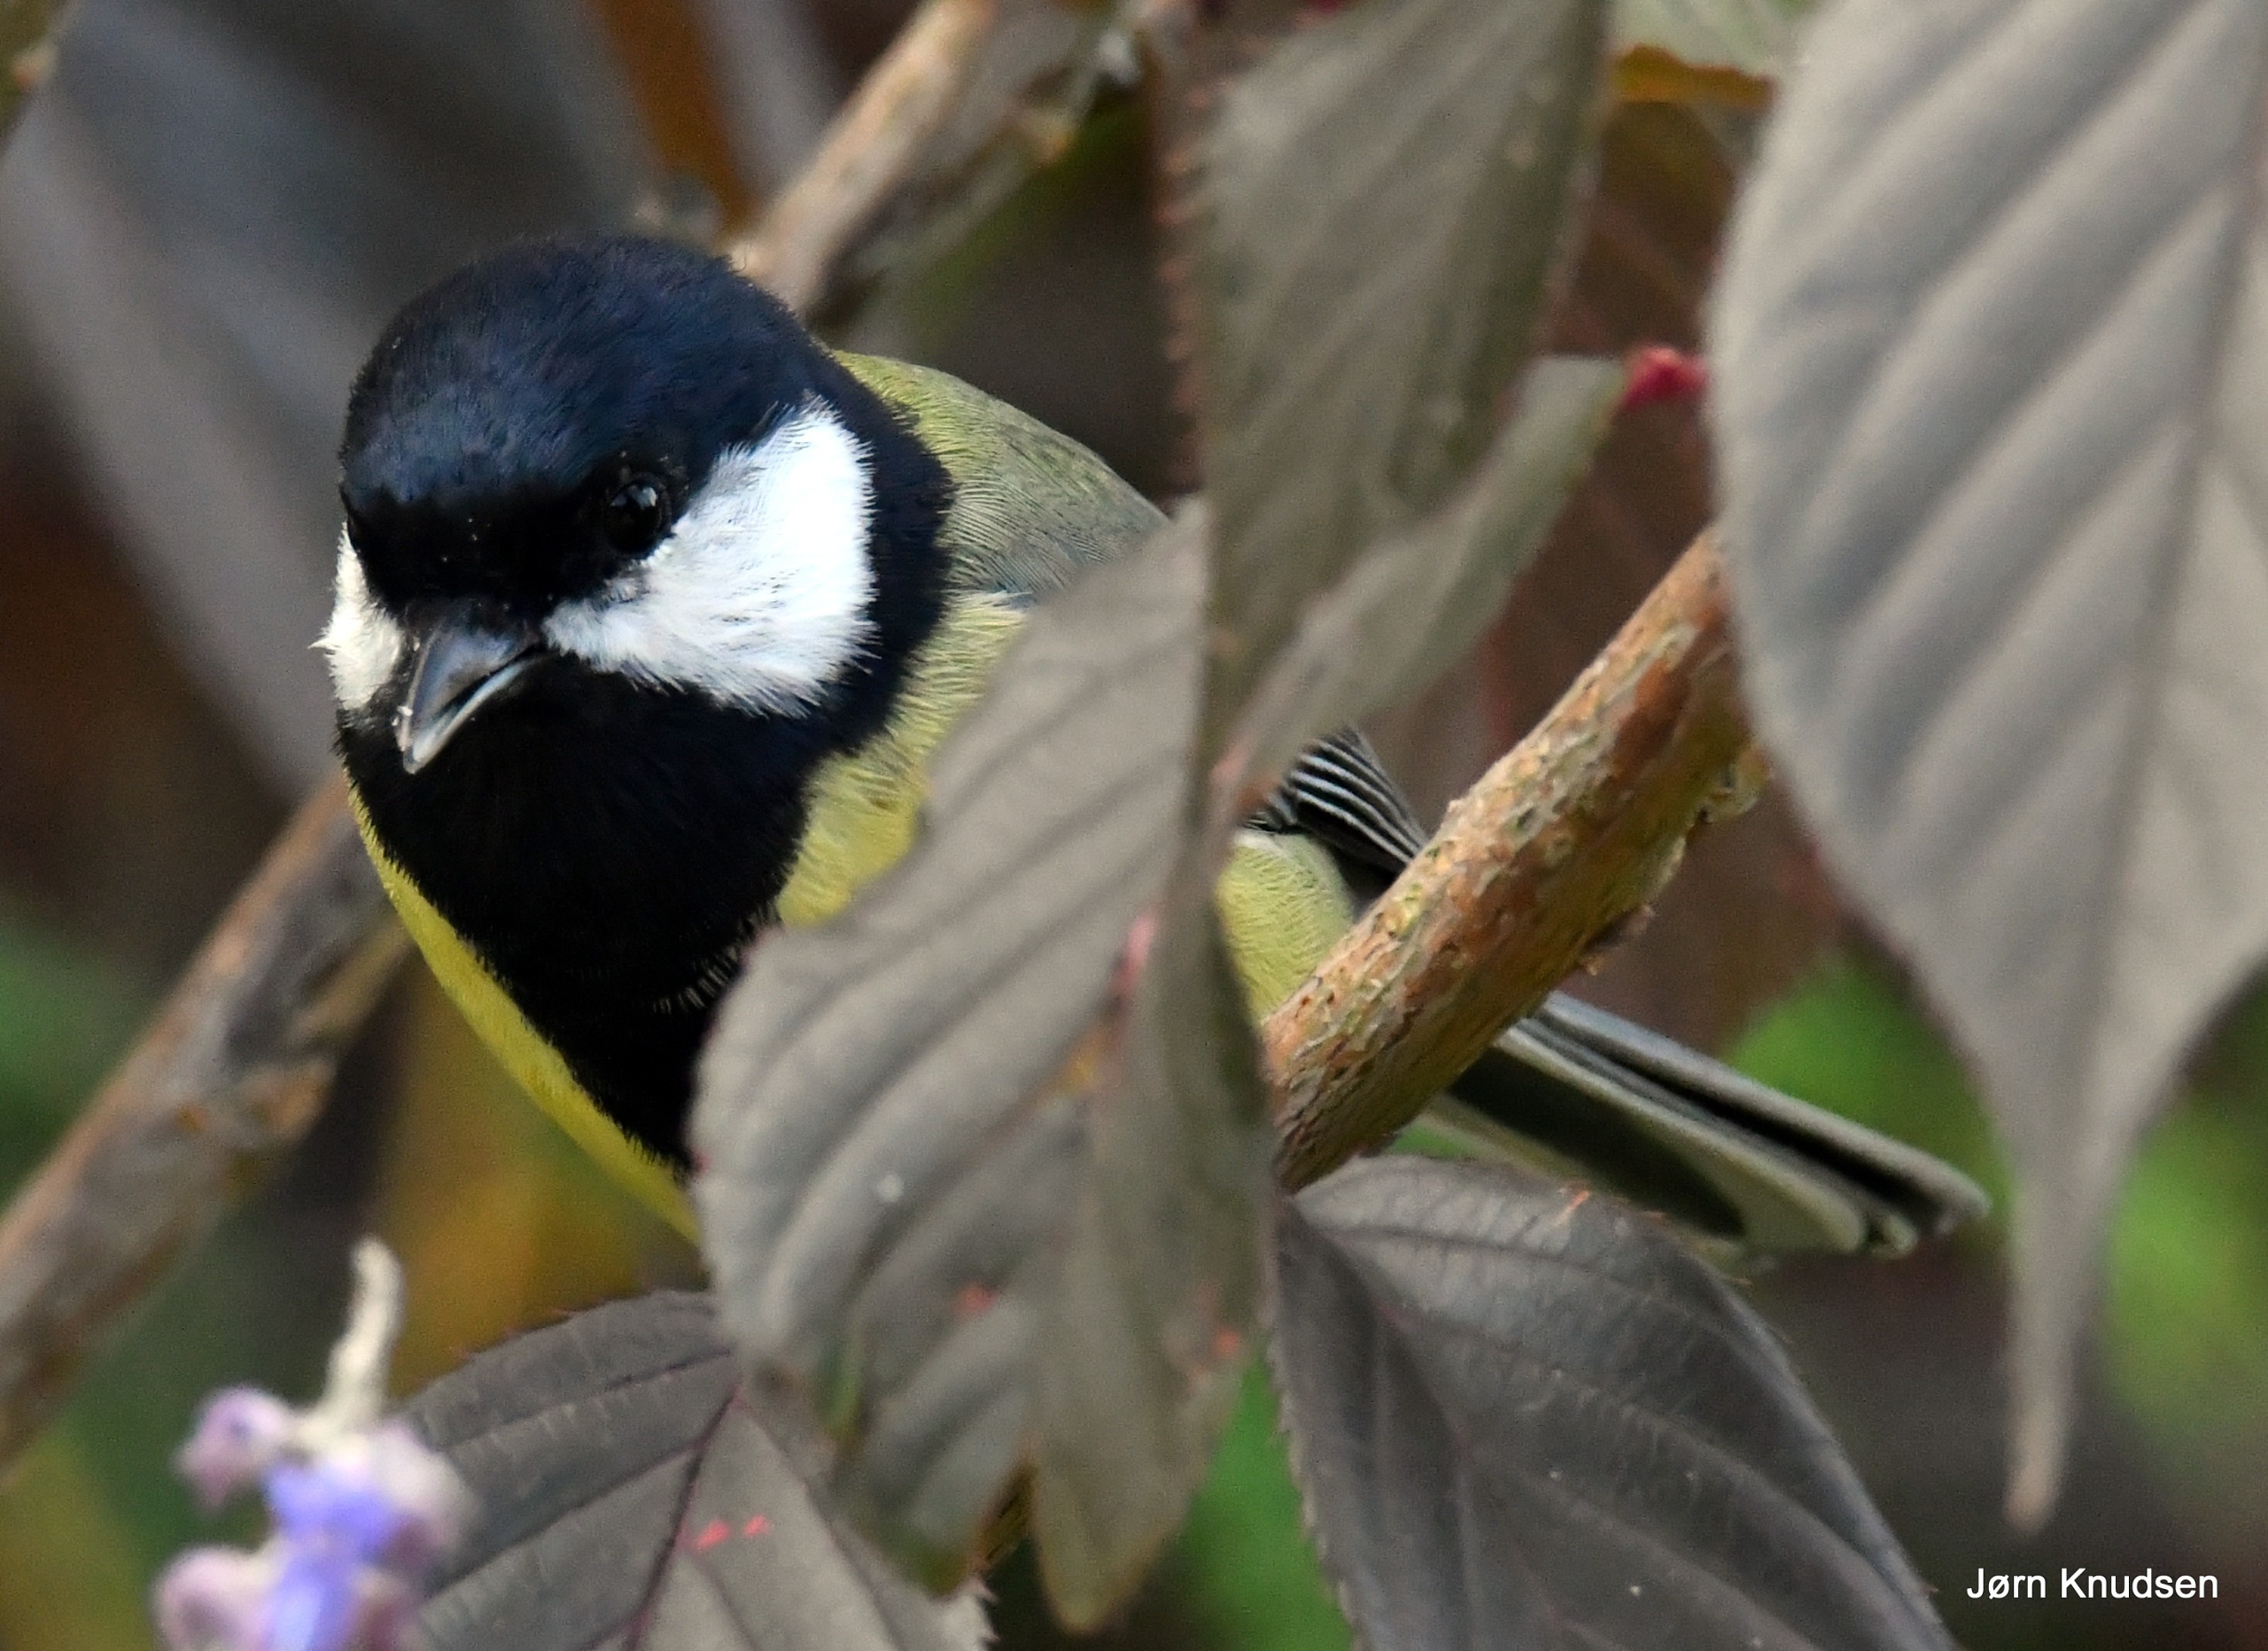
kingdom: Animalia
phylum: Chordata
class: Aves
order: Passeriformes
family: Paridae
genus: Parus
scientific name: Parus major
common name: Musvit
